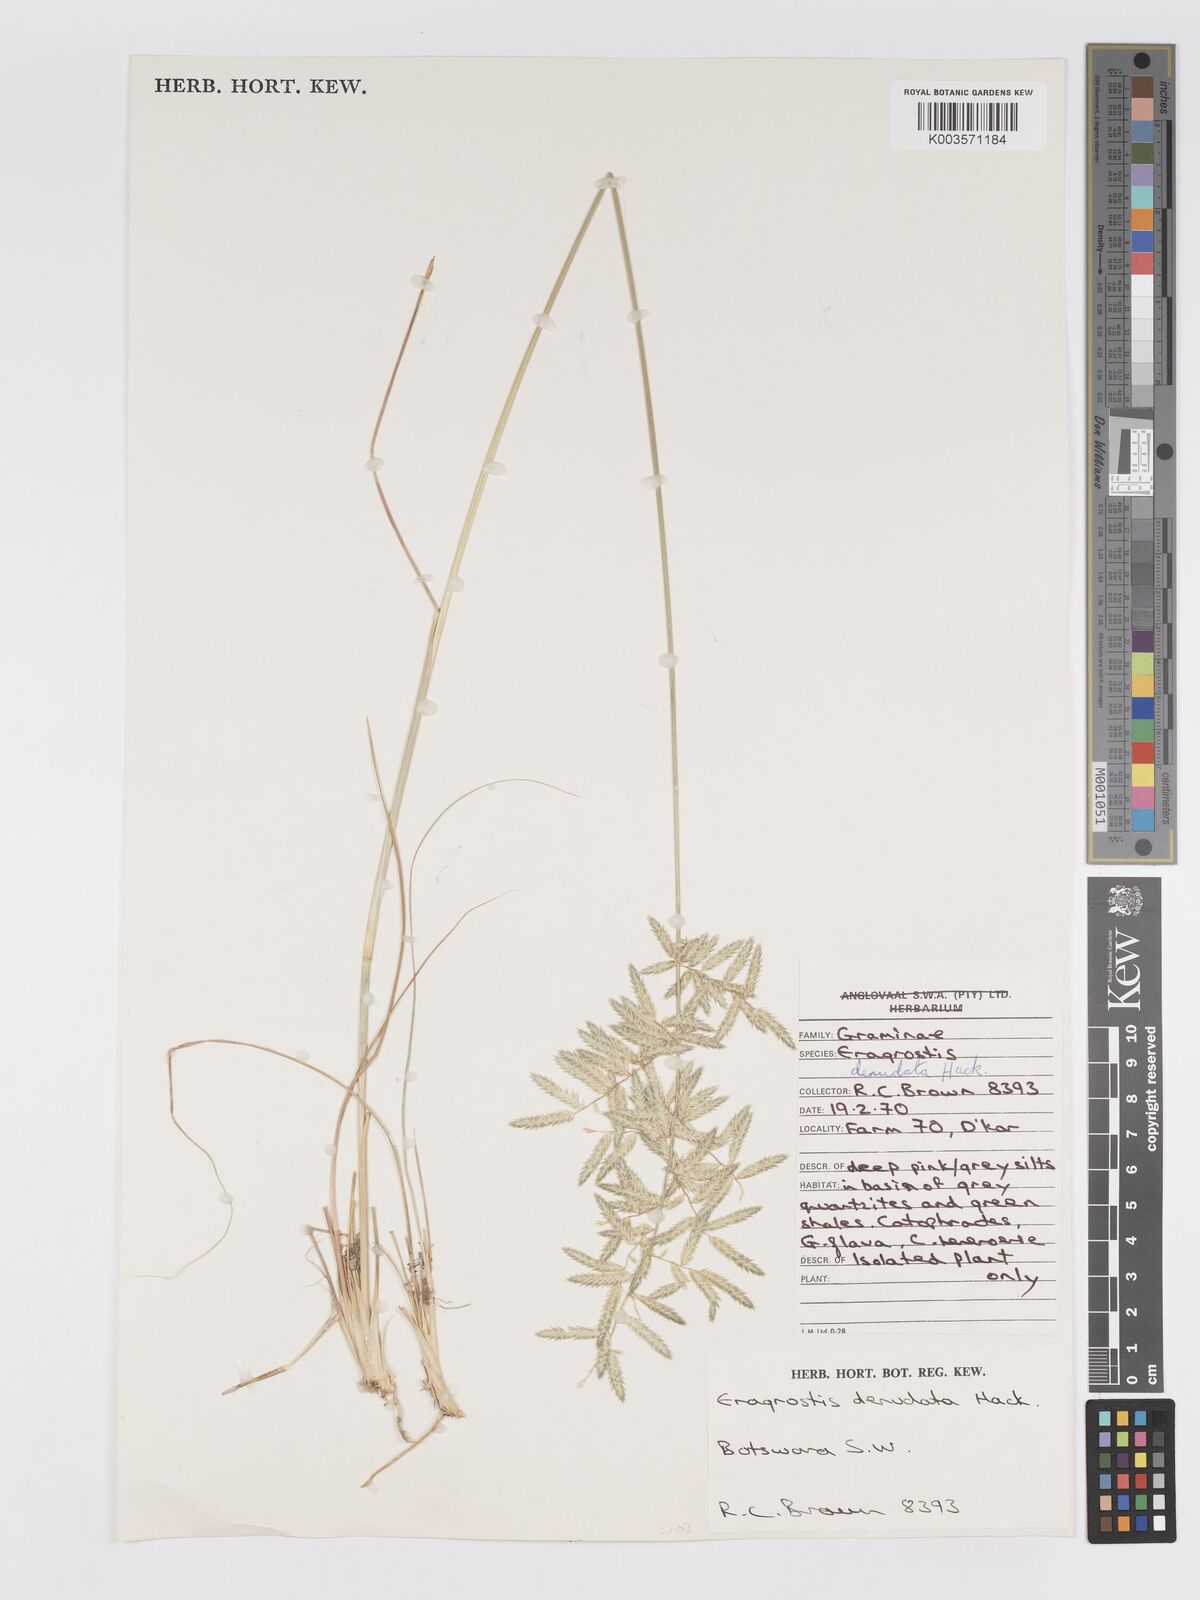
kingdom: Plantae
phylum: Tracheophyta
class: Liliopsida
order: Poales
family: Poaceae
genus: Eragrostis
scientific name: Eragrostis nindensis
